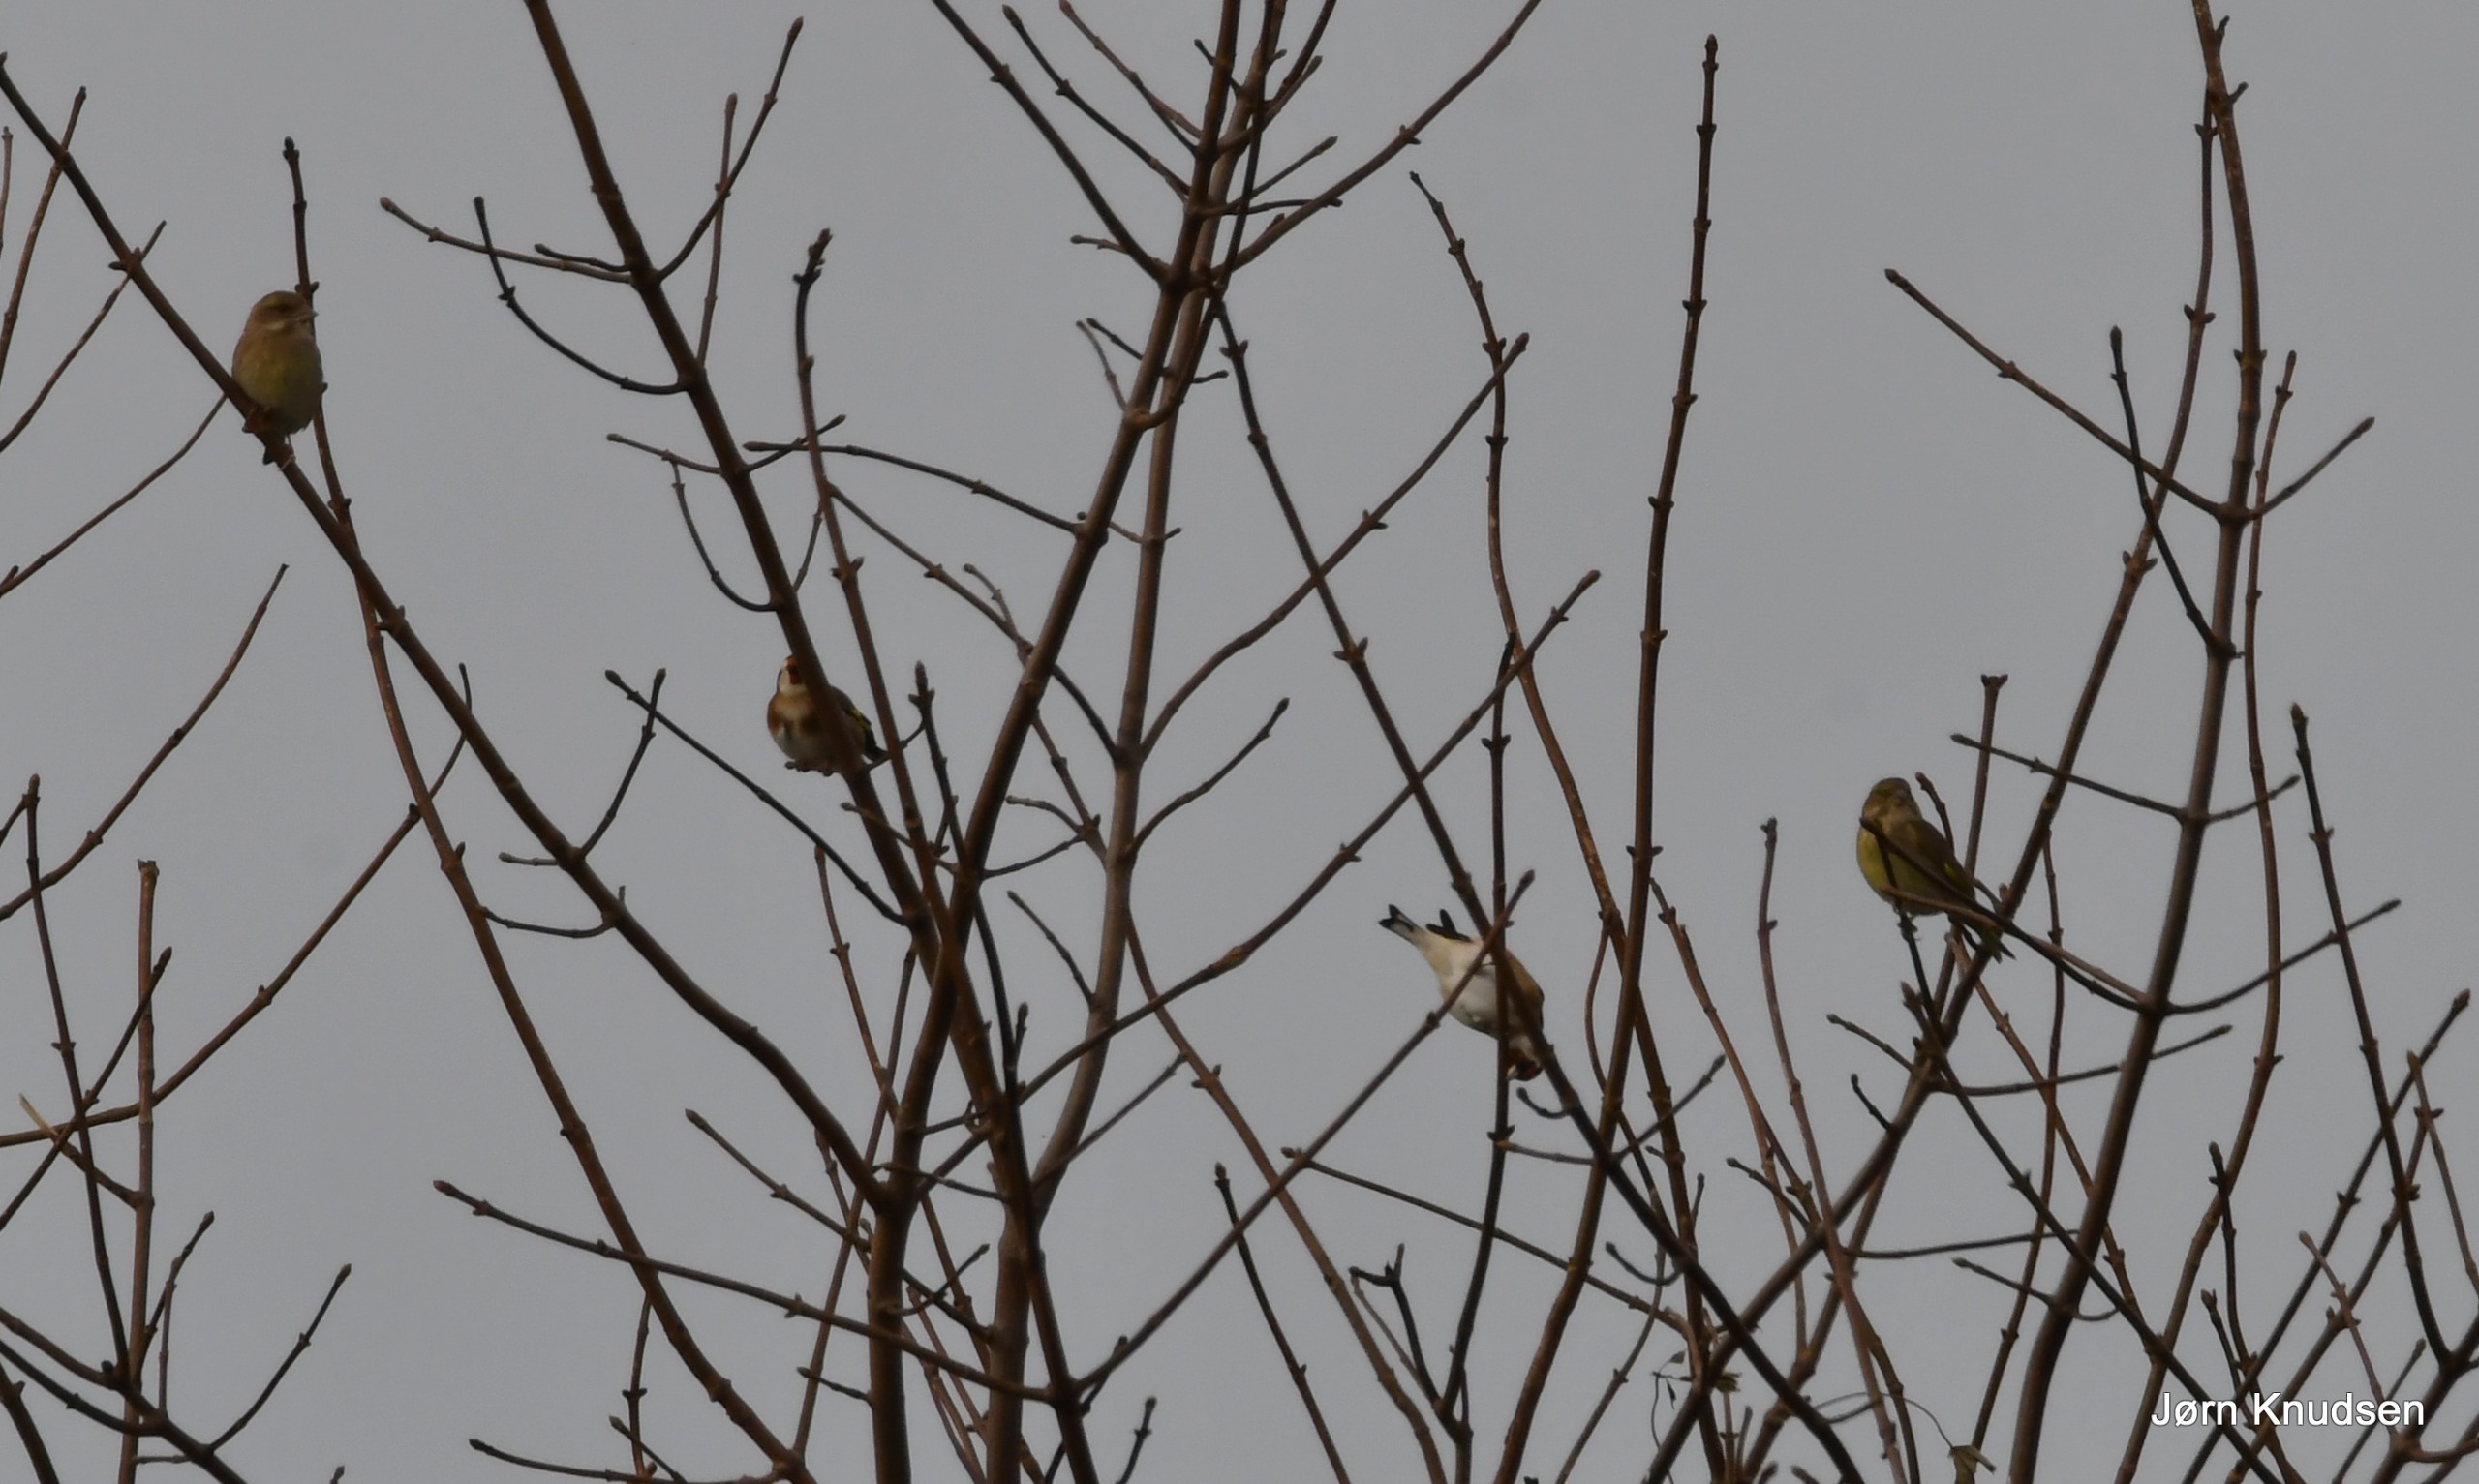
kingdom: Animalia
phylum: Chordata
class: Aves
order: Passeriformes
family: Fringillidae
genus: Carduelis
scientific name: Carduelis carduelis
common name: Stillits
